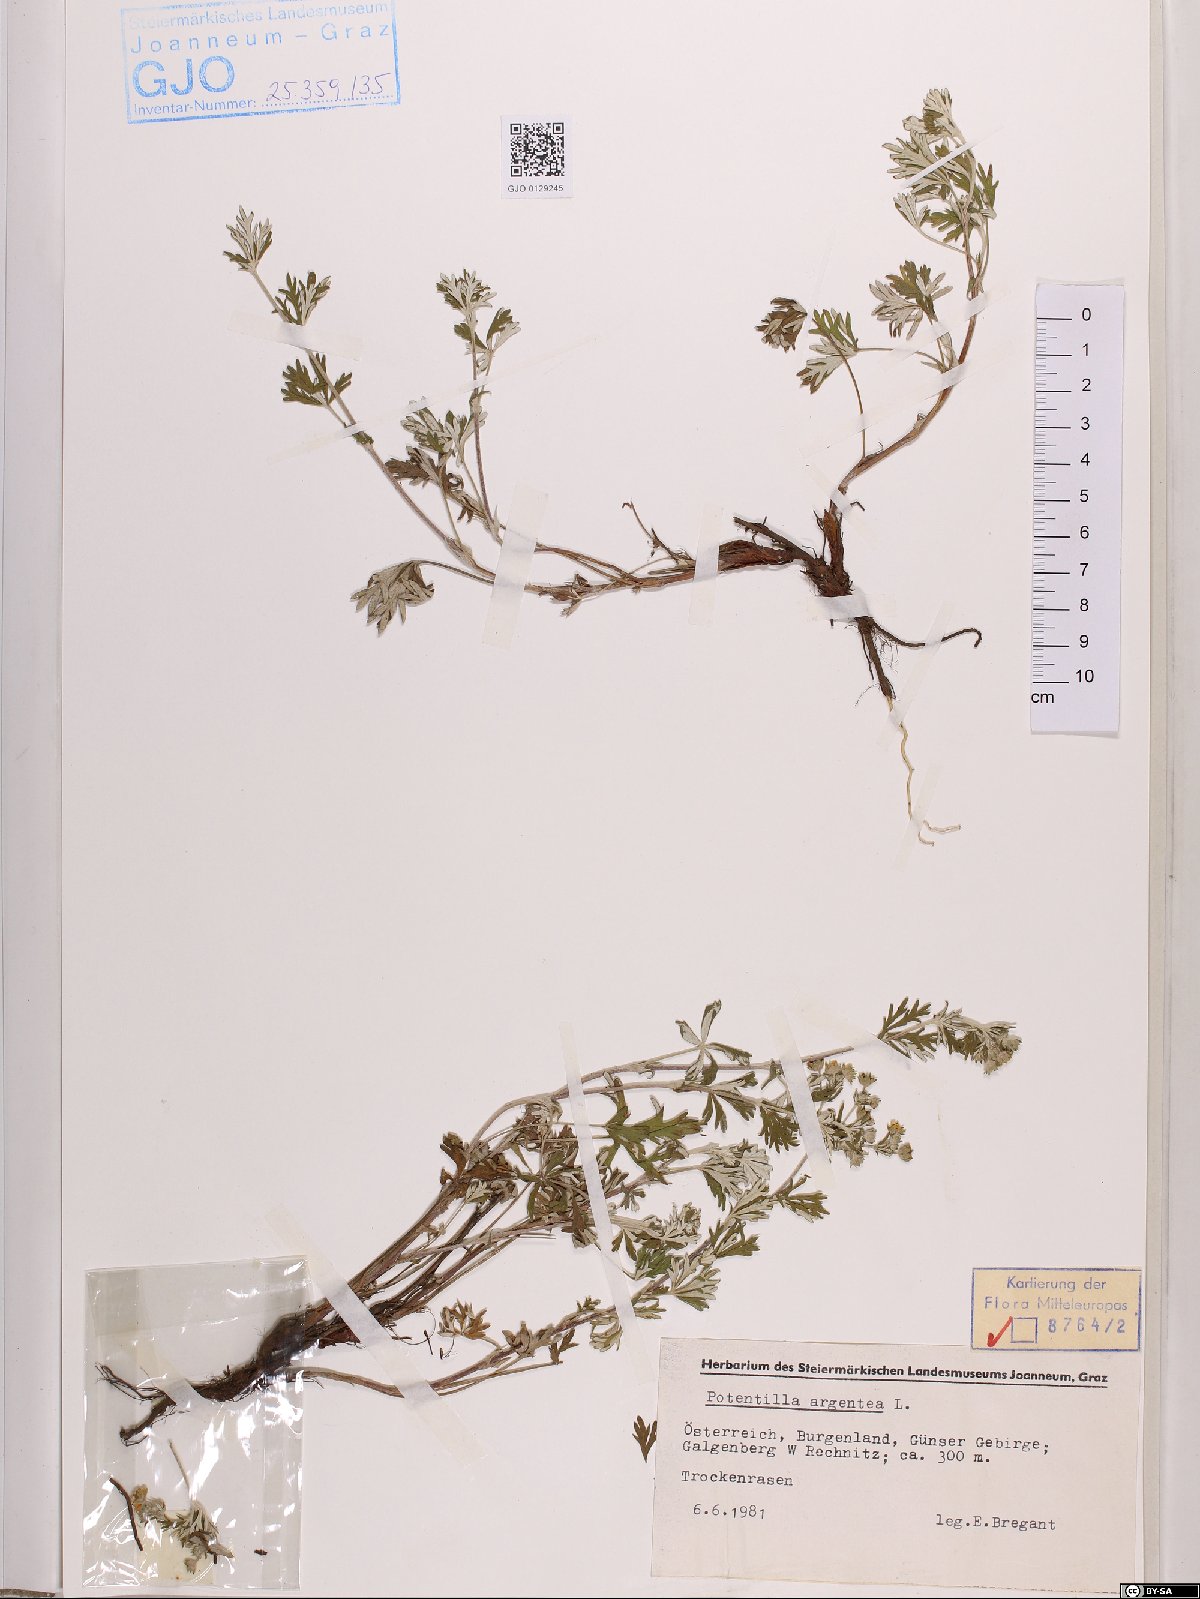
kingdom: Plantae
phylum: Tracheophyta
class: Magnoliopsida
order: Rosales
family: Rosaceae
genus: Potentilla
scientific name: Potentilla argentea
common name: Hoary cinquefoil
